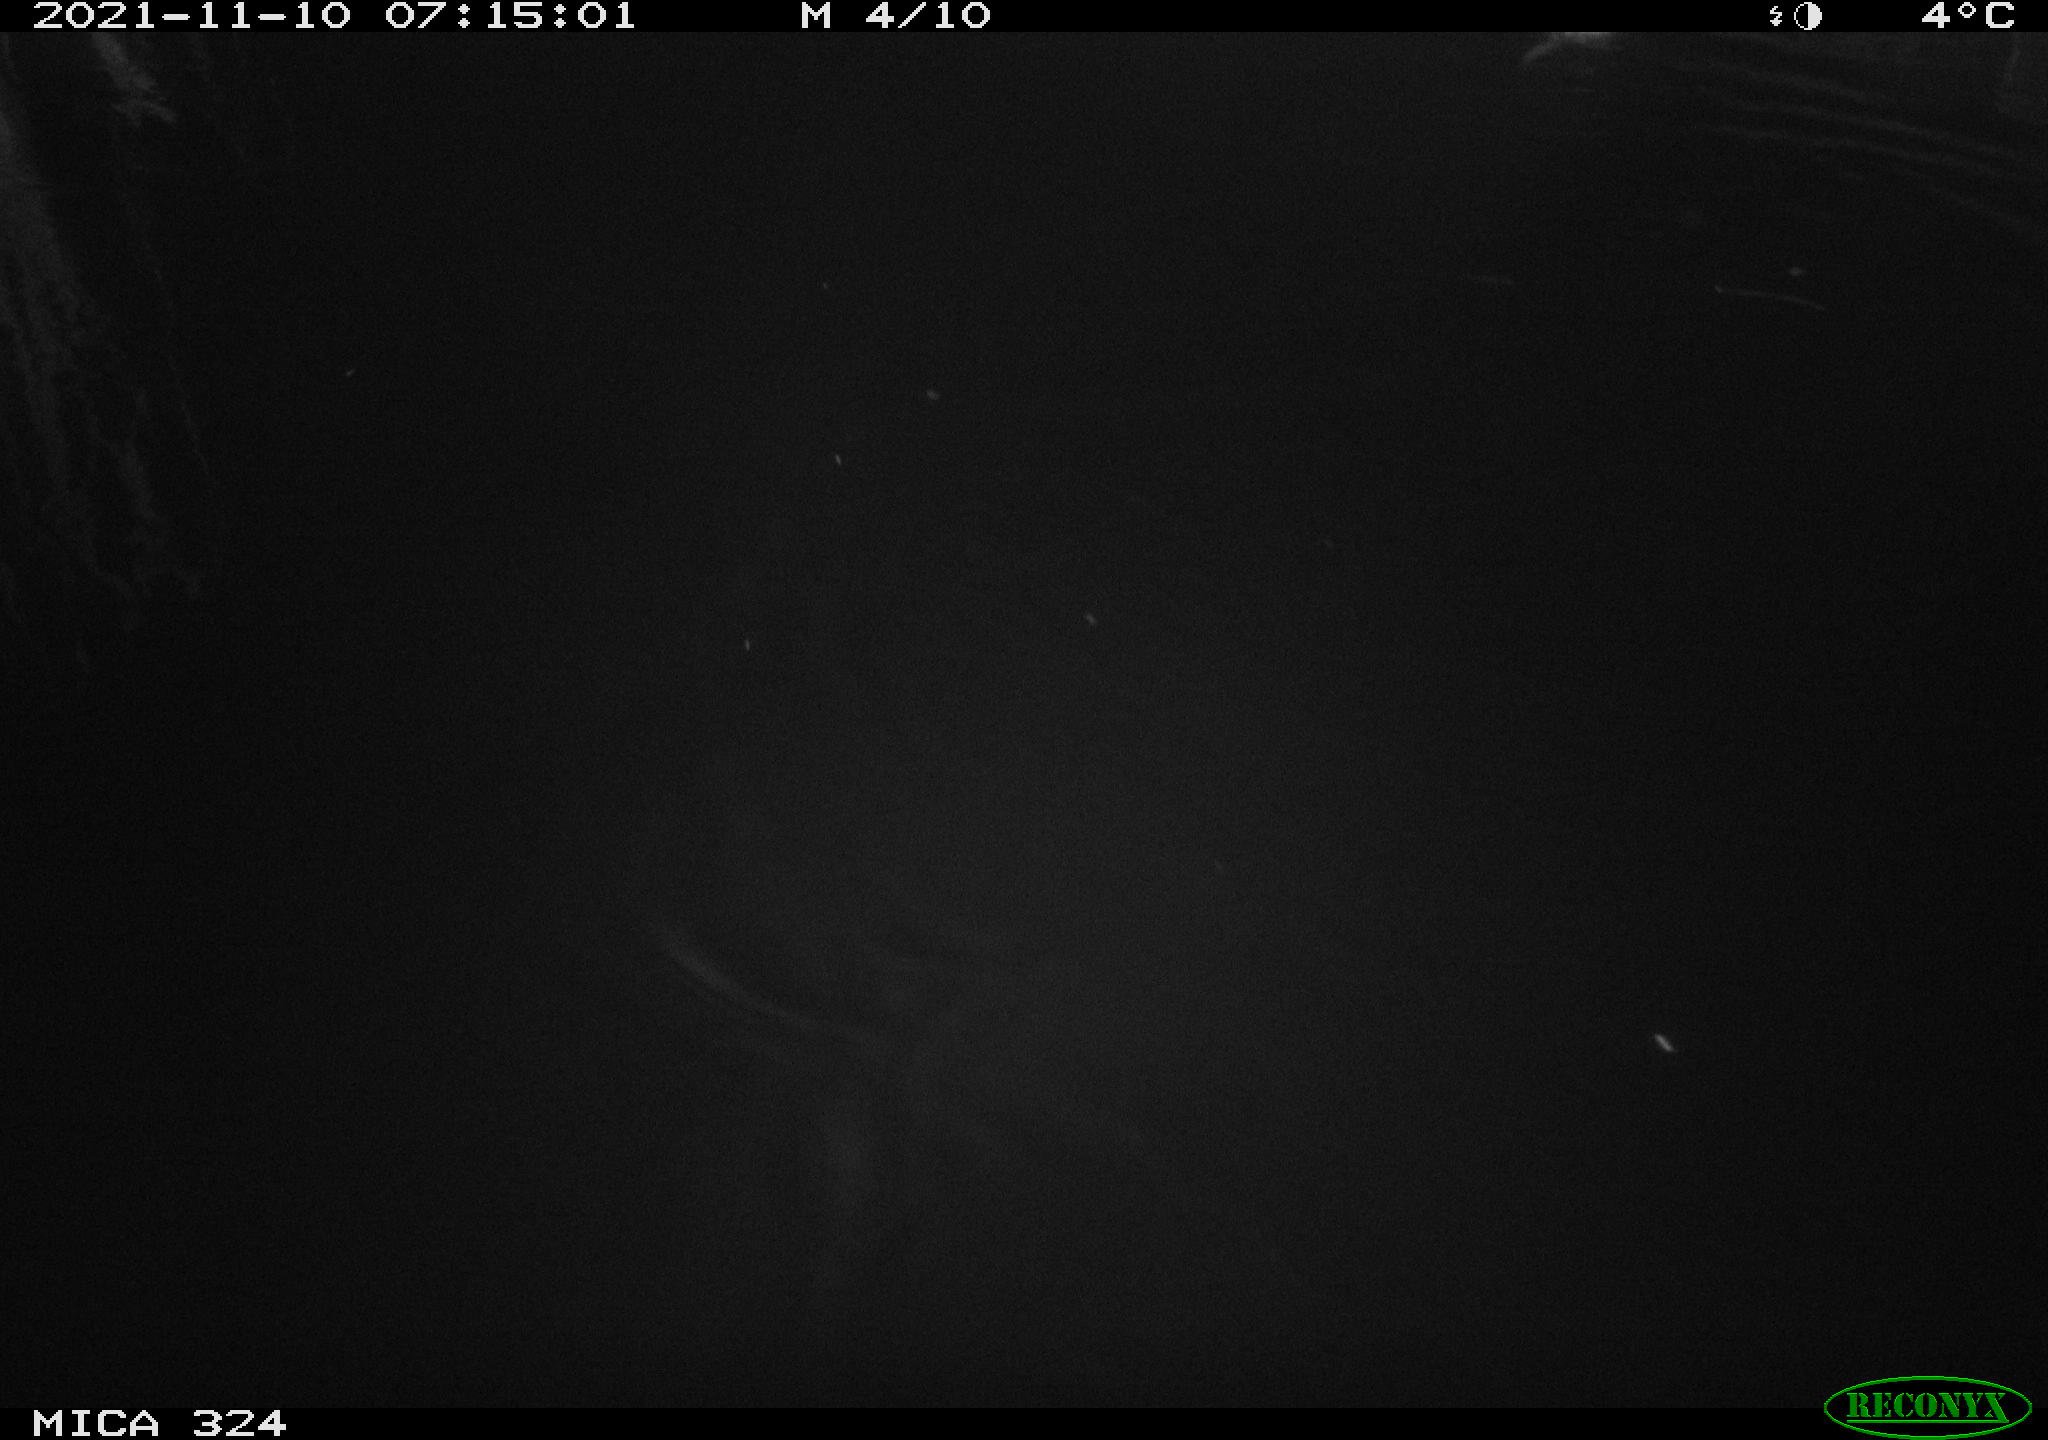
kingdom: Animalia
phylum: Chordata
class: Mammalia
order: Rodentia
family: Cricetidae
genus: Ondatra
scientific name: Ondatra zibethicus
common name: Muskrat
